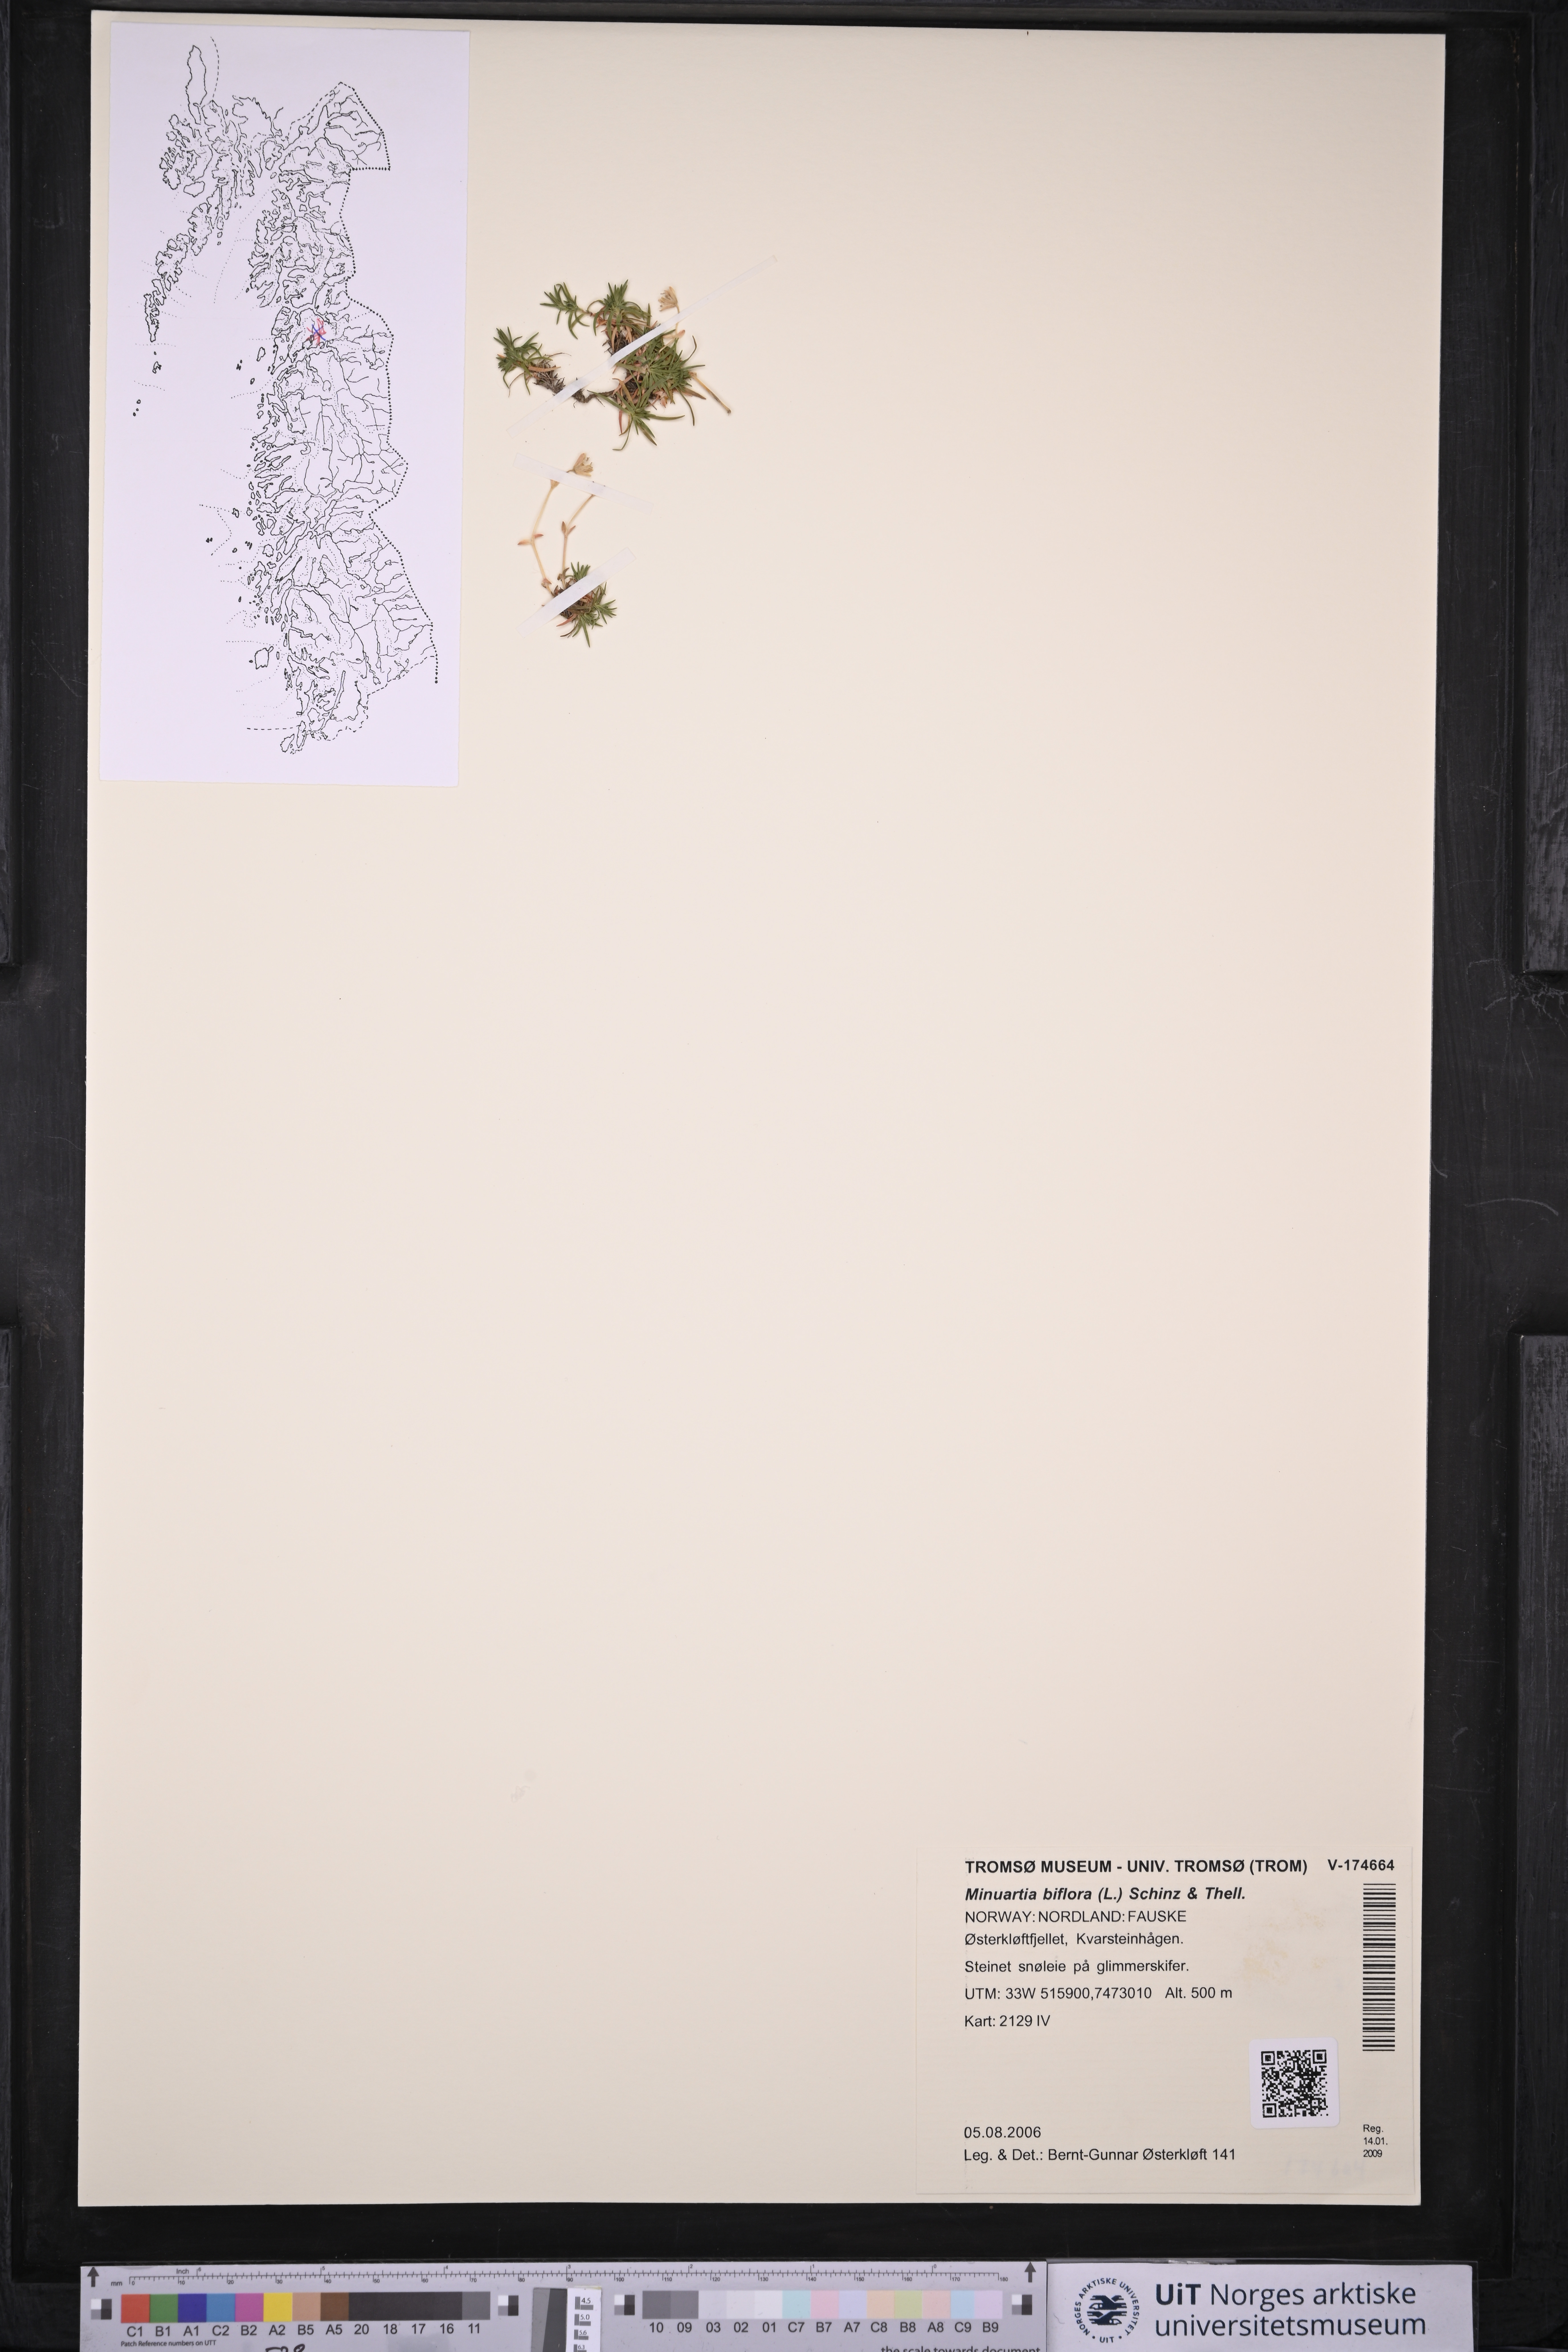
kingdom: Plantae
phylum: Tracheophyta
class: Magnoliopsida
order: Caryophyllales
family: Caryophyllaceae
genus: Cherleria
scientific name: Cherleria biflora
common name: Mountain sandwort
